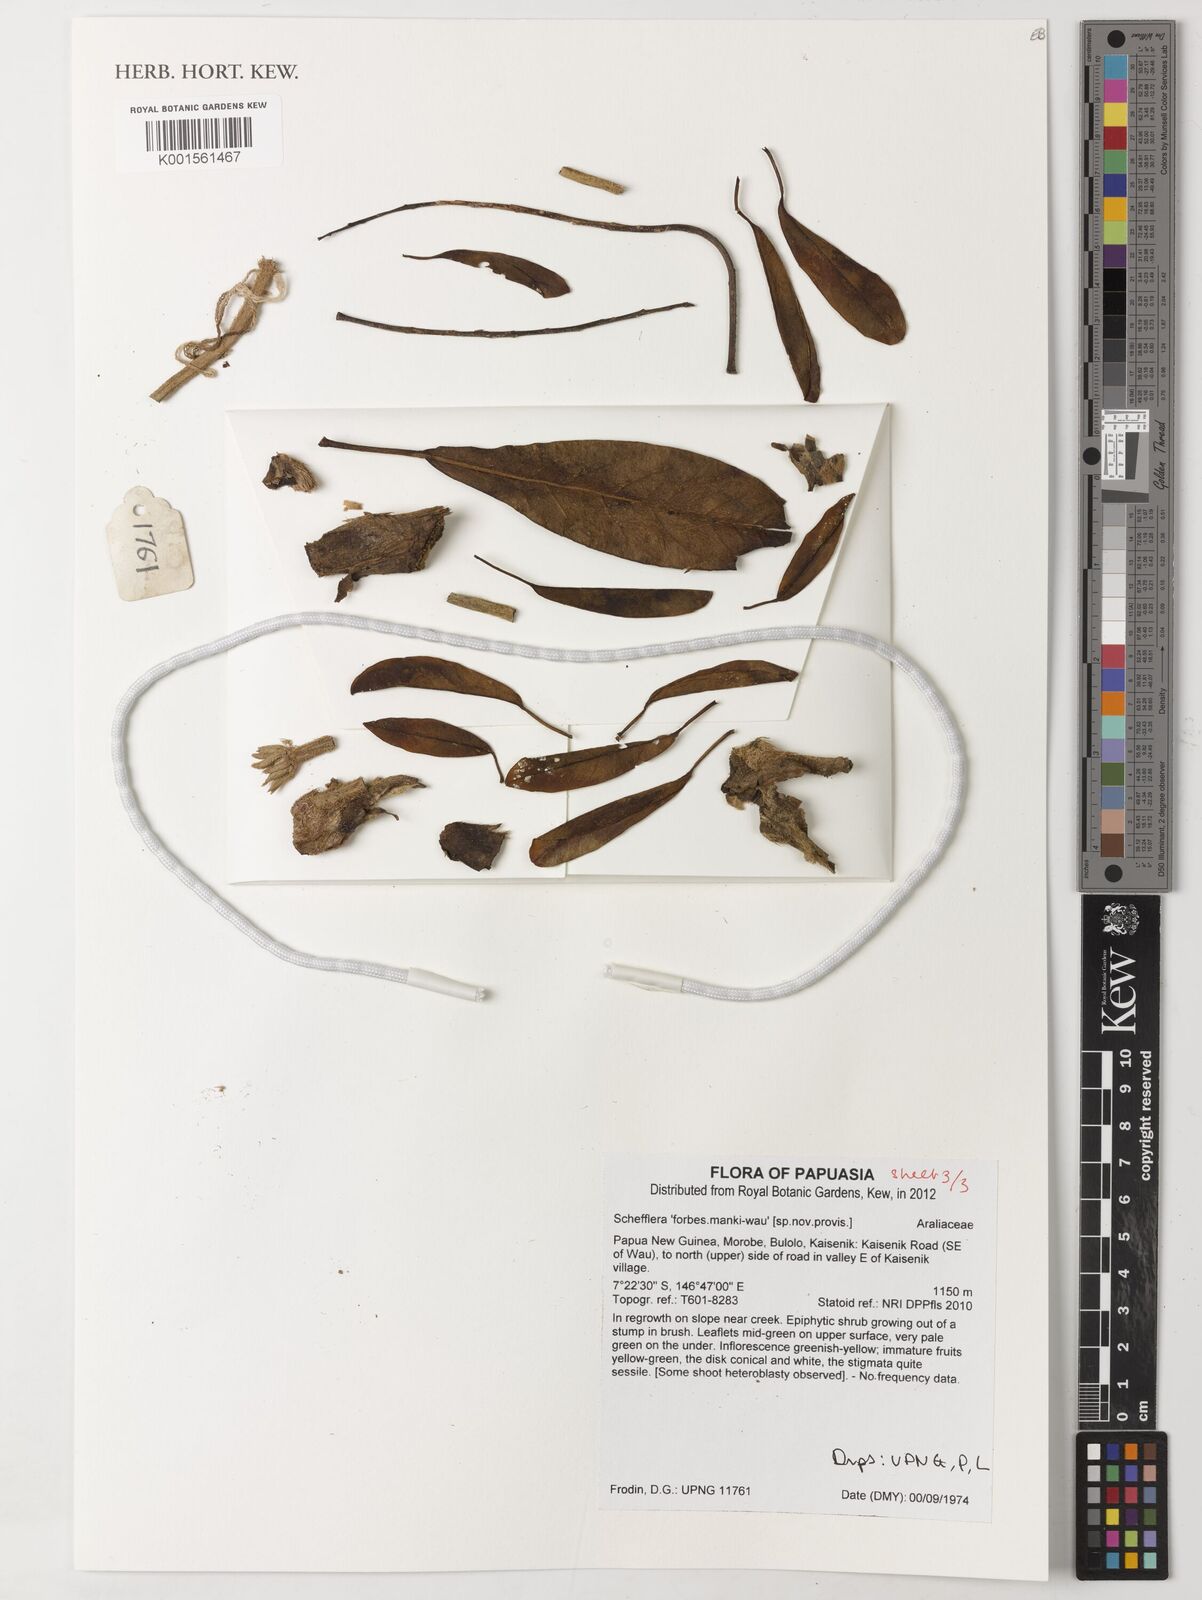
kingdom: Plantae
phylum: Tracheophyta
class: Magnoliopsida
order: Apiales
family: Araliaceae
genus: Schefflera
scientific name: Schefflera
